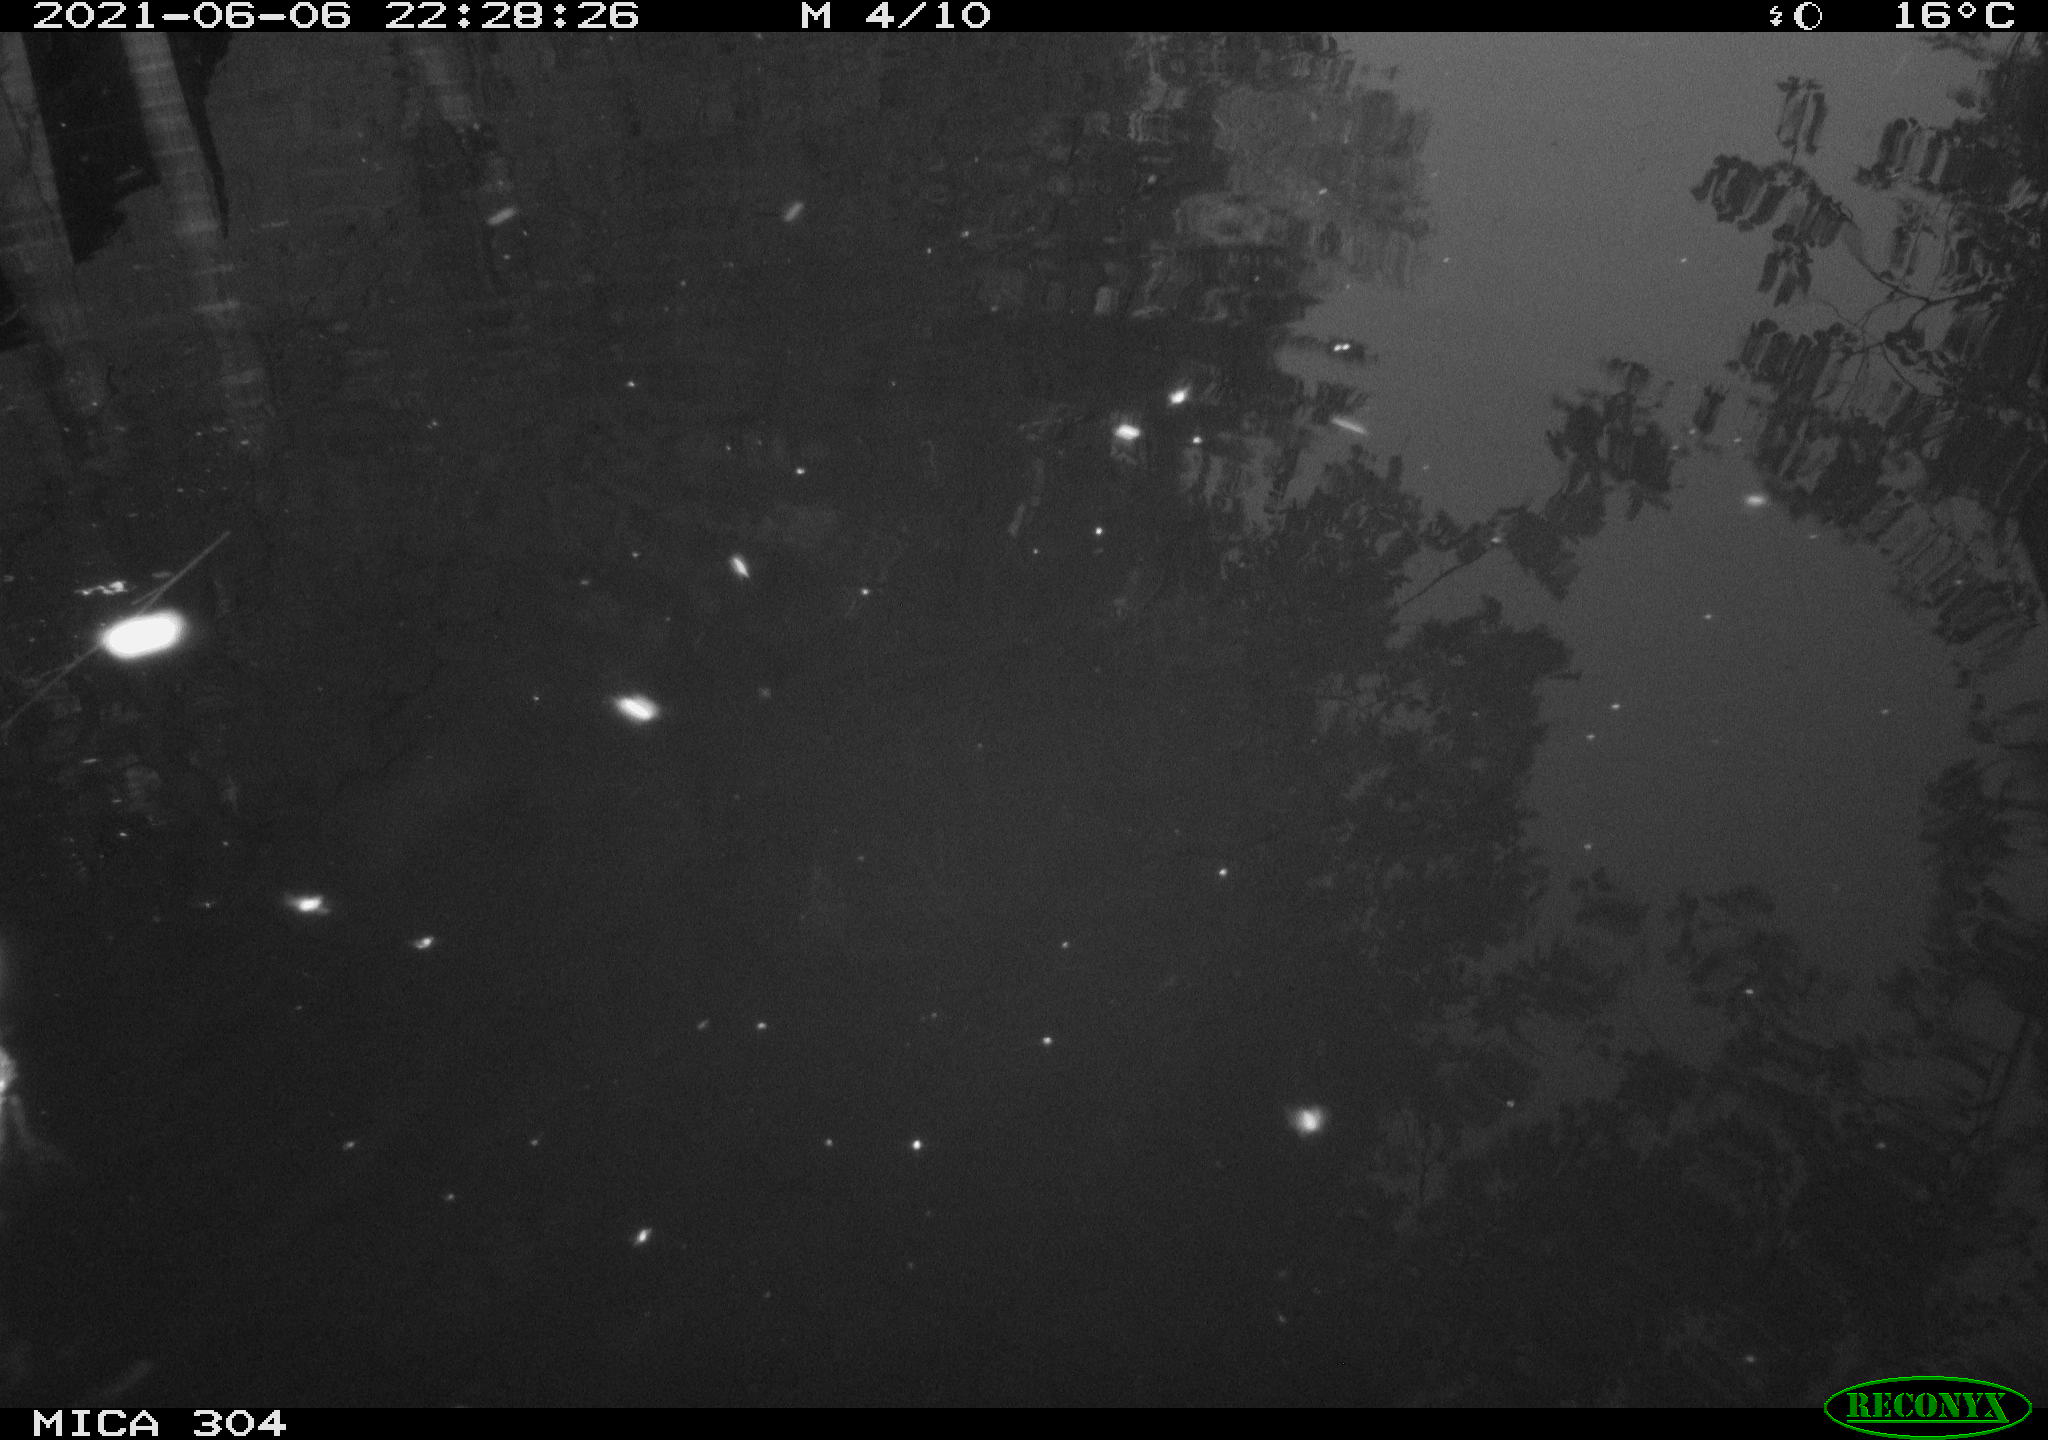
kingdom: Animalia
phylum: Chordata
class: Aves
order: Anseriformes
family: Anatidae
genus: Anas
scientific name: Anas platyrhynchos
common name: Mallard
